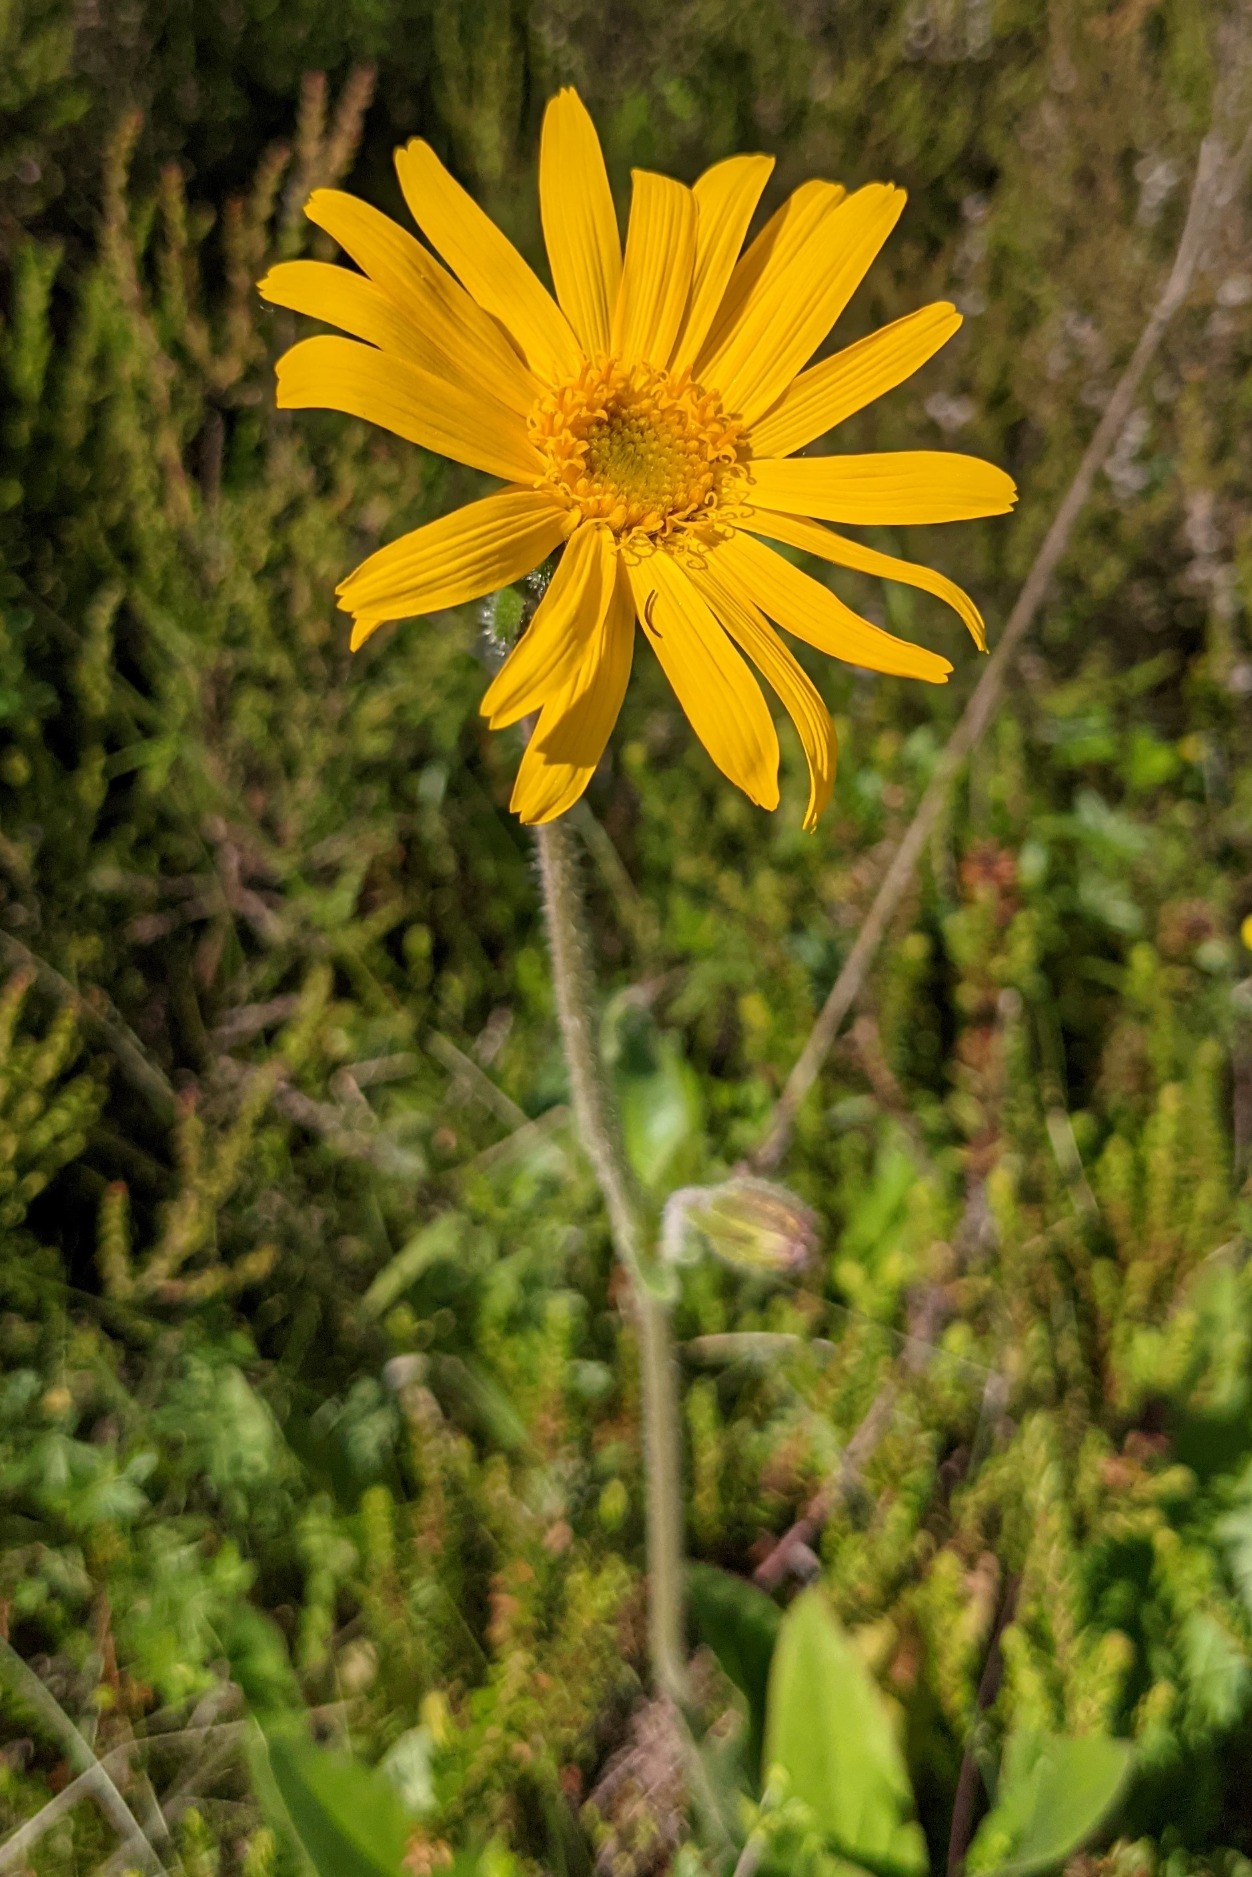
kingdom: Plantae
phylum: Tracheophyta
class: Magnoliopsida
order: Asterales
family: Asteraceae
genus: Arnica
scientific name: Arnica montana
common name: Guldblomme
